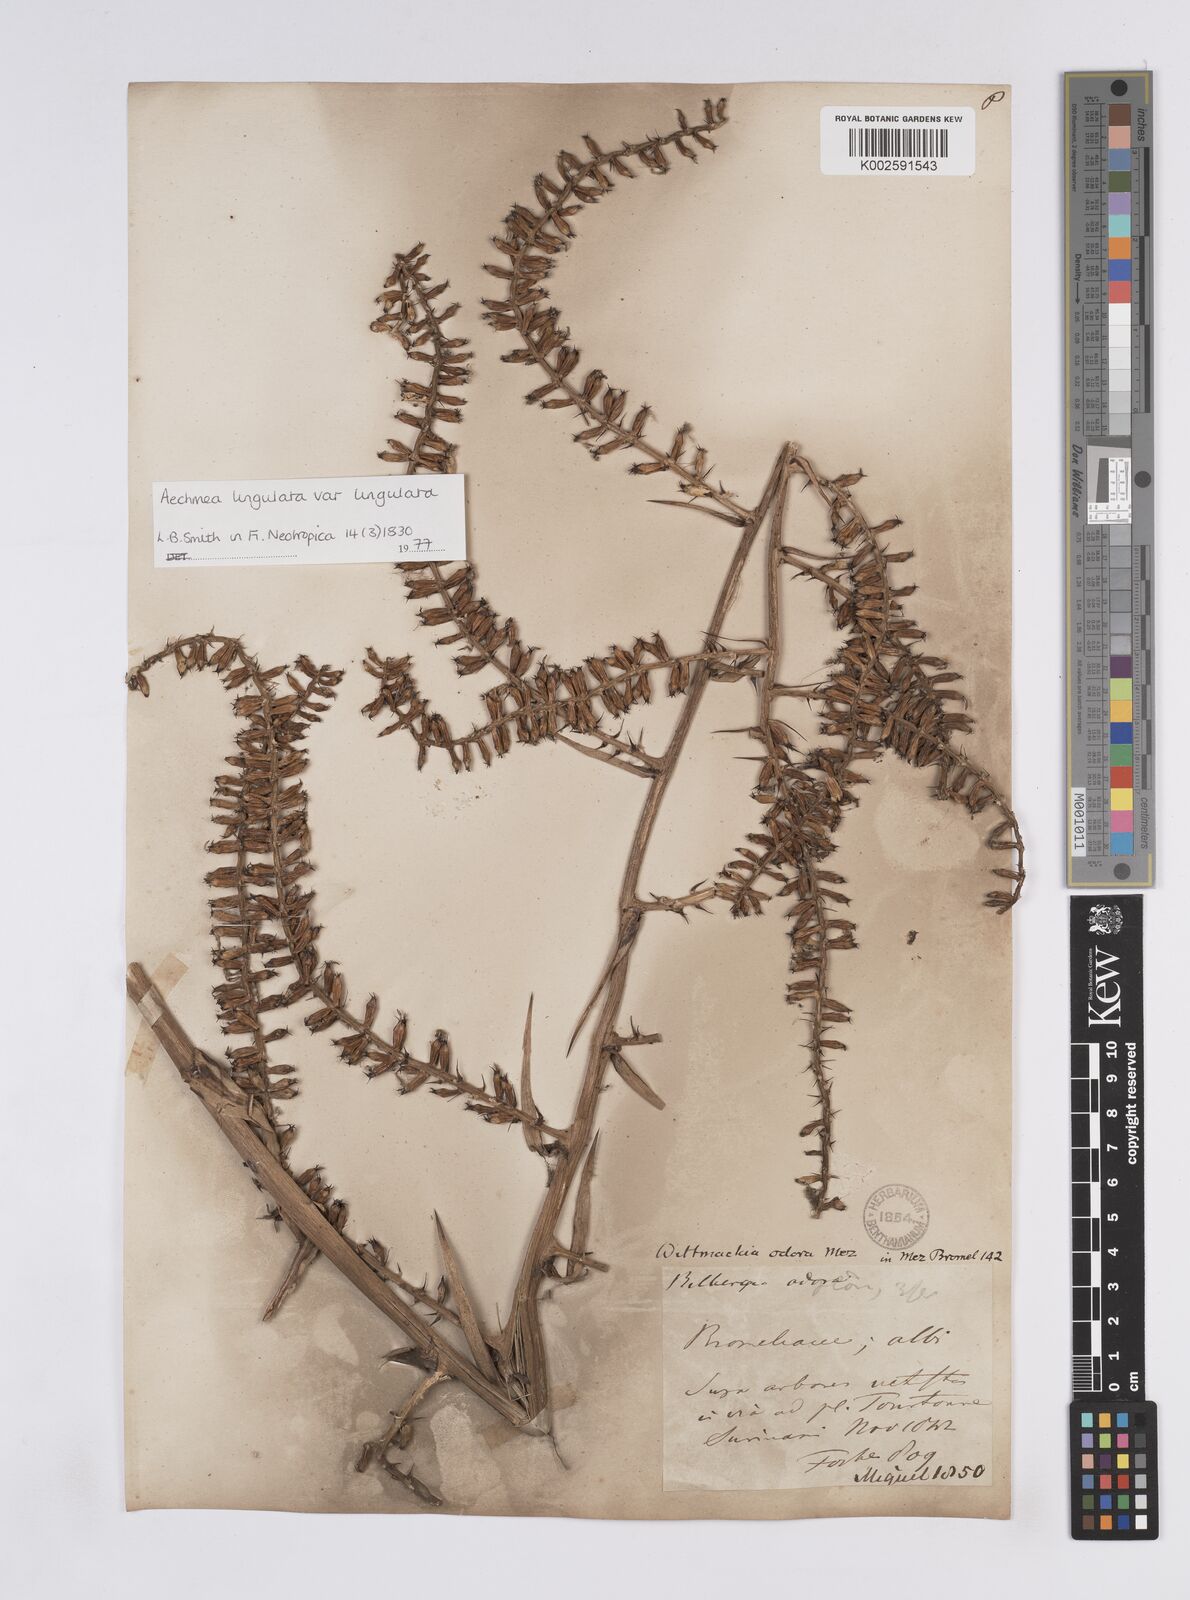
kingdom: Plantae
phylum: Tracheophyta
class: Liliopsida
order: Poales
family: Bromeliaceae
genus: Wittmackia
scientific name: Wittmackia lingulata
